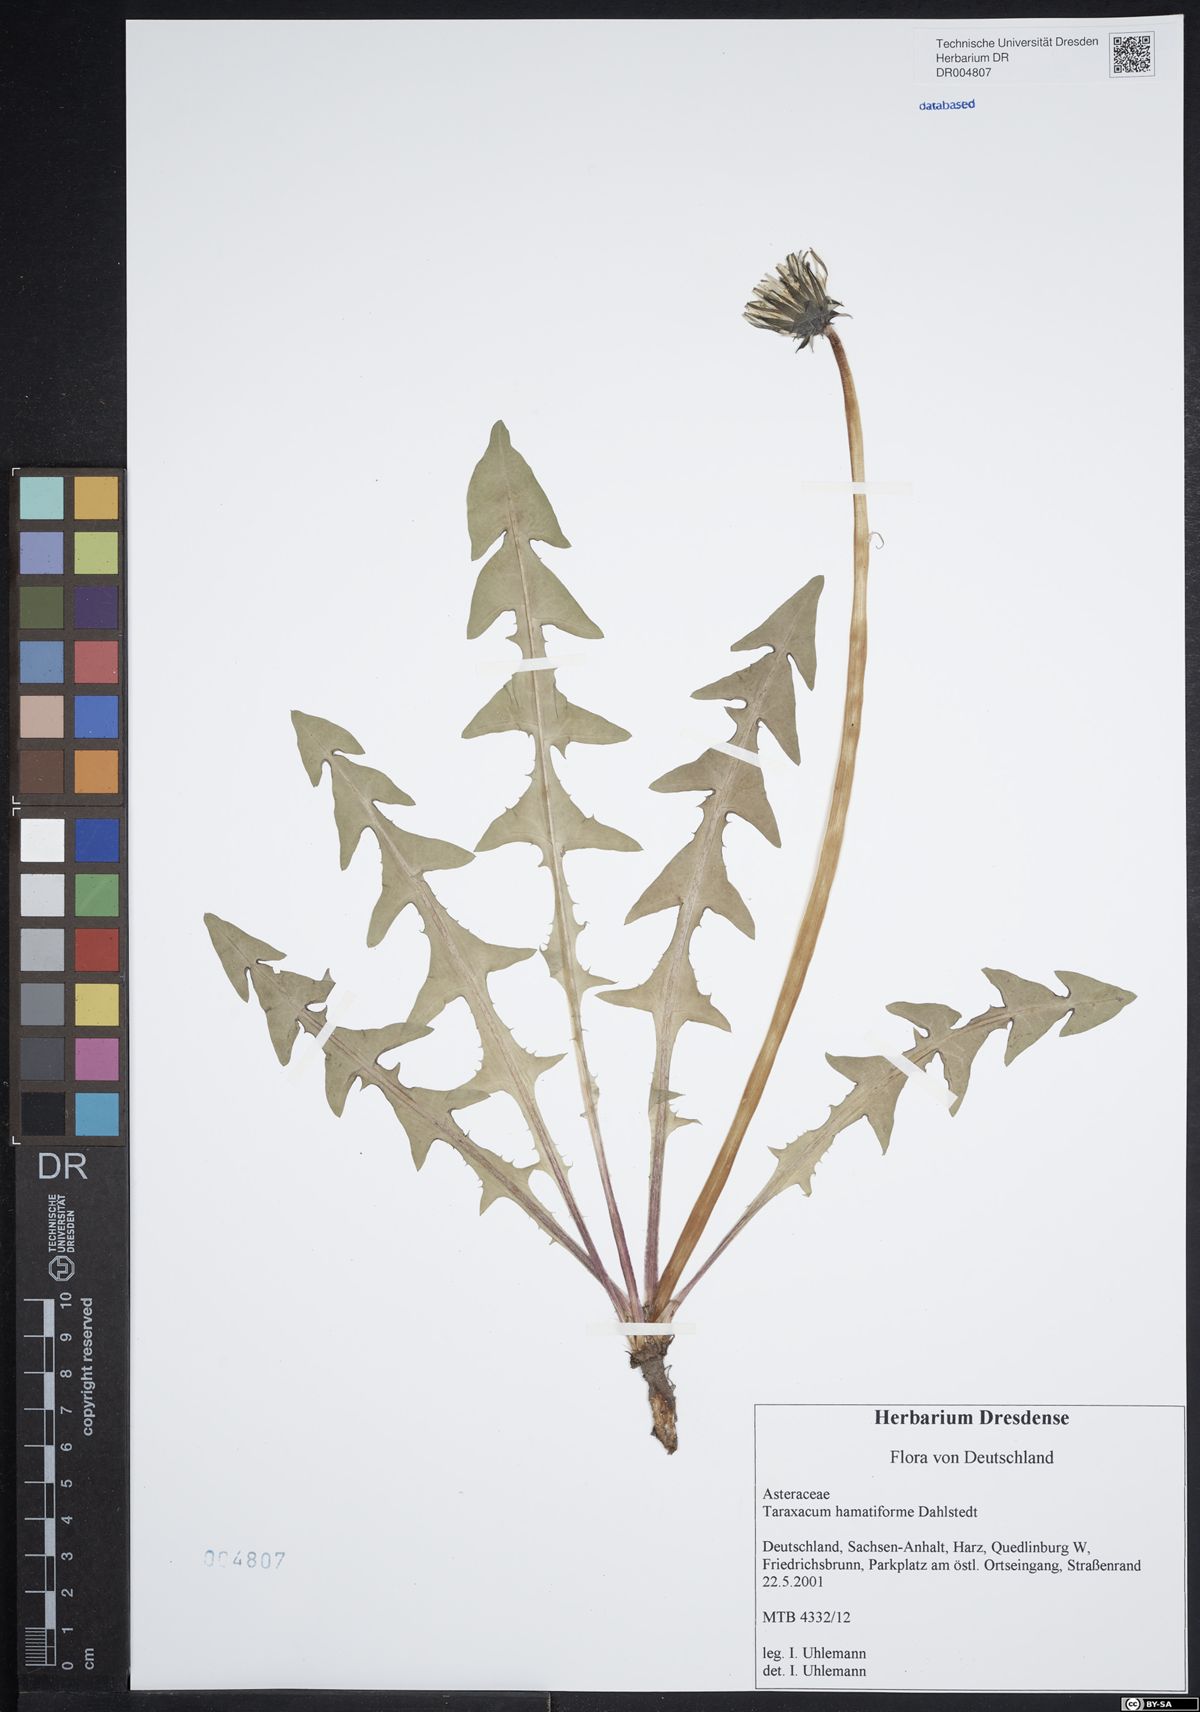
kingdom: Plantae
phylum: Tracheophyta
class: Magnoliopsida
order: Asterales
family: Asteraceae
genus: Taraxacum
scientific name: Taraxacum hamatiforme
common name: Asymmetrical hook-lobed dandelion
